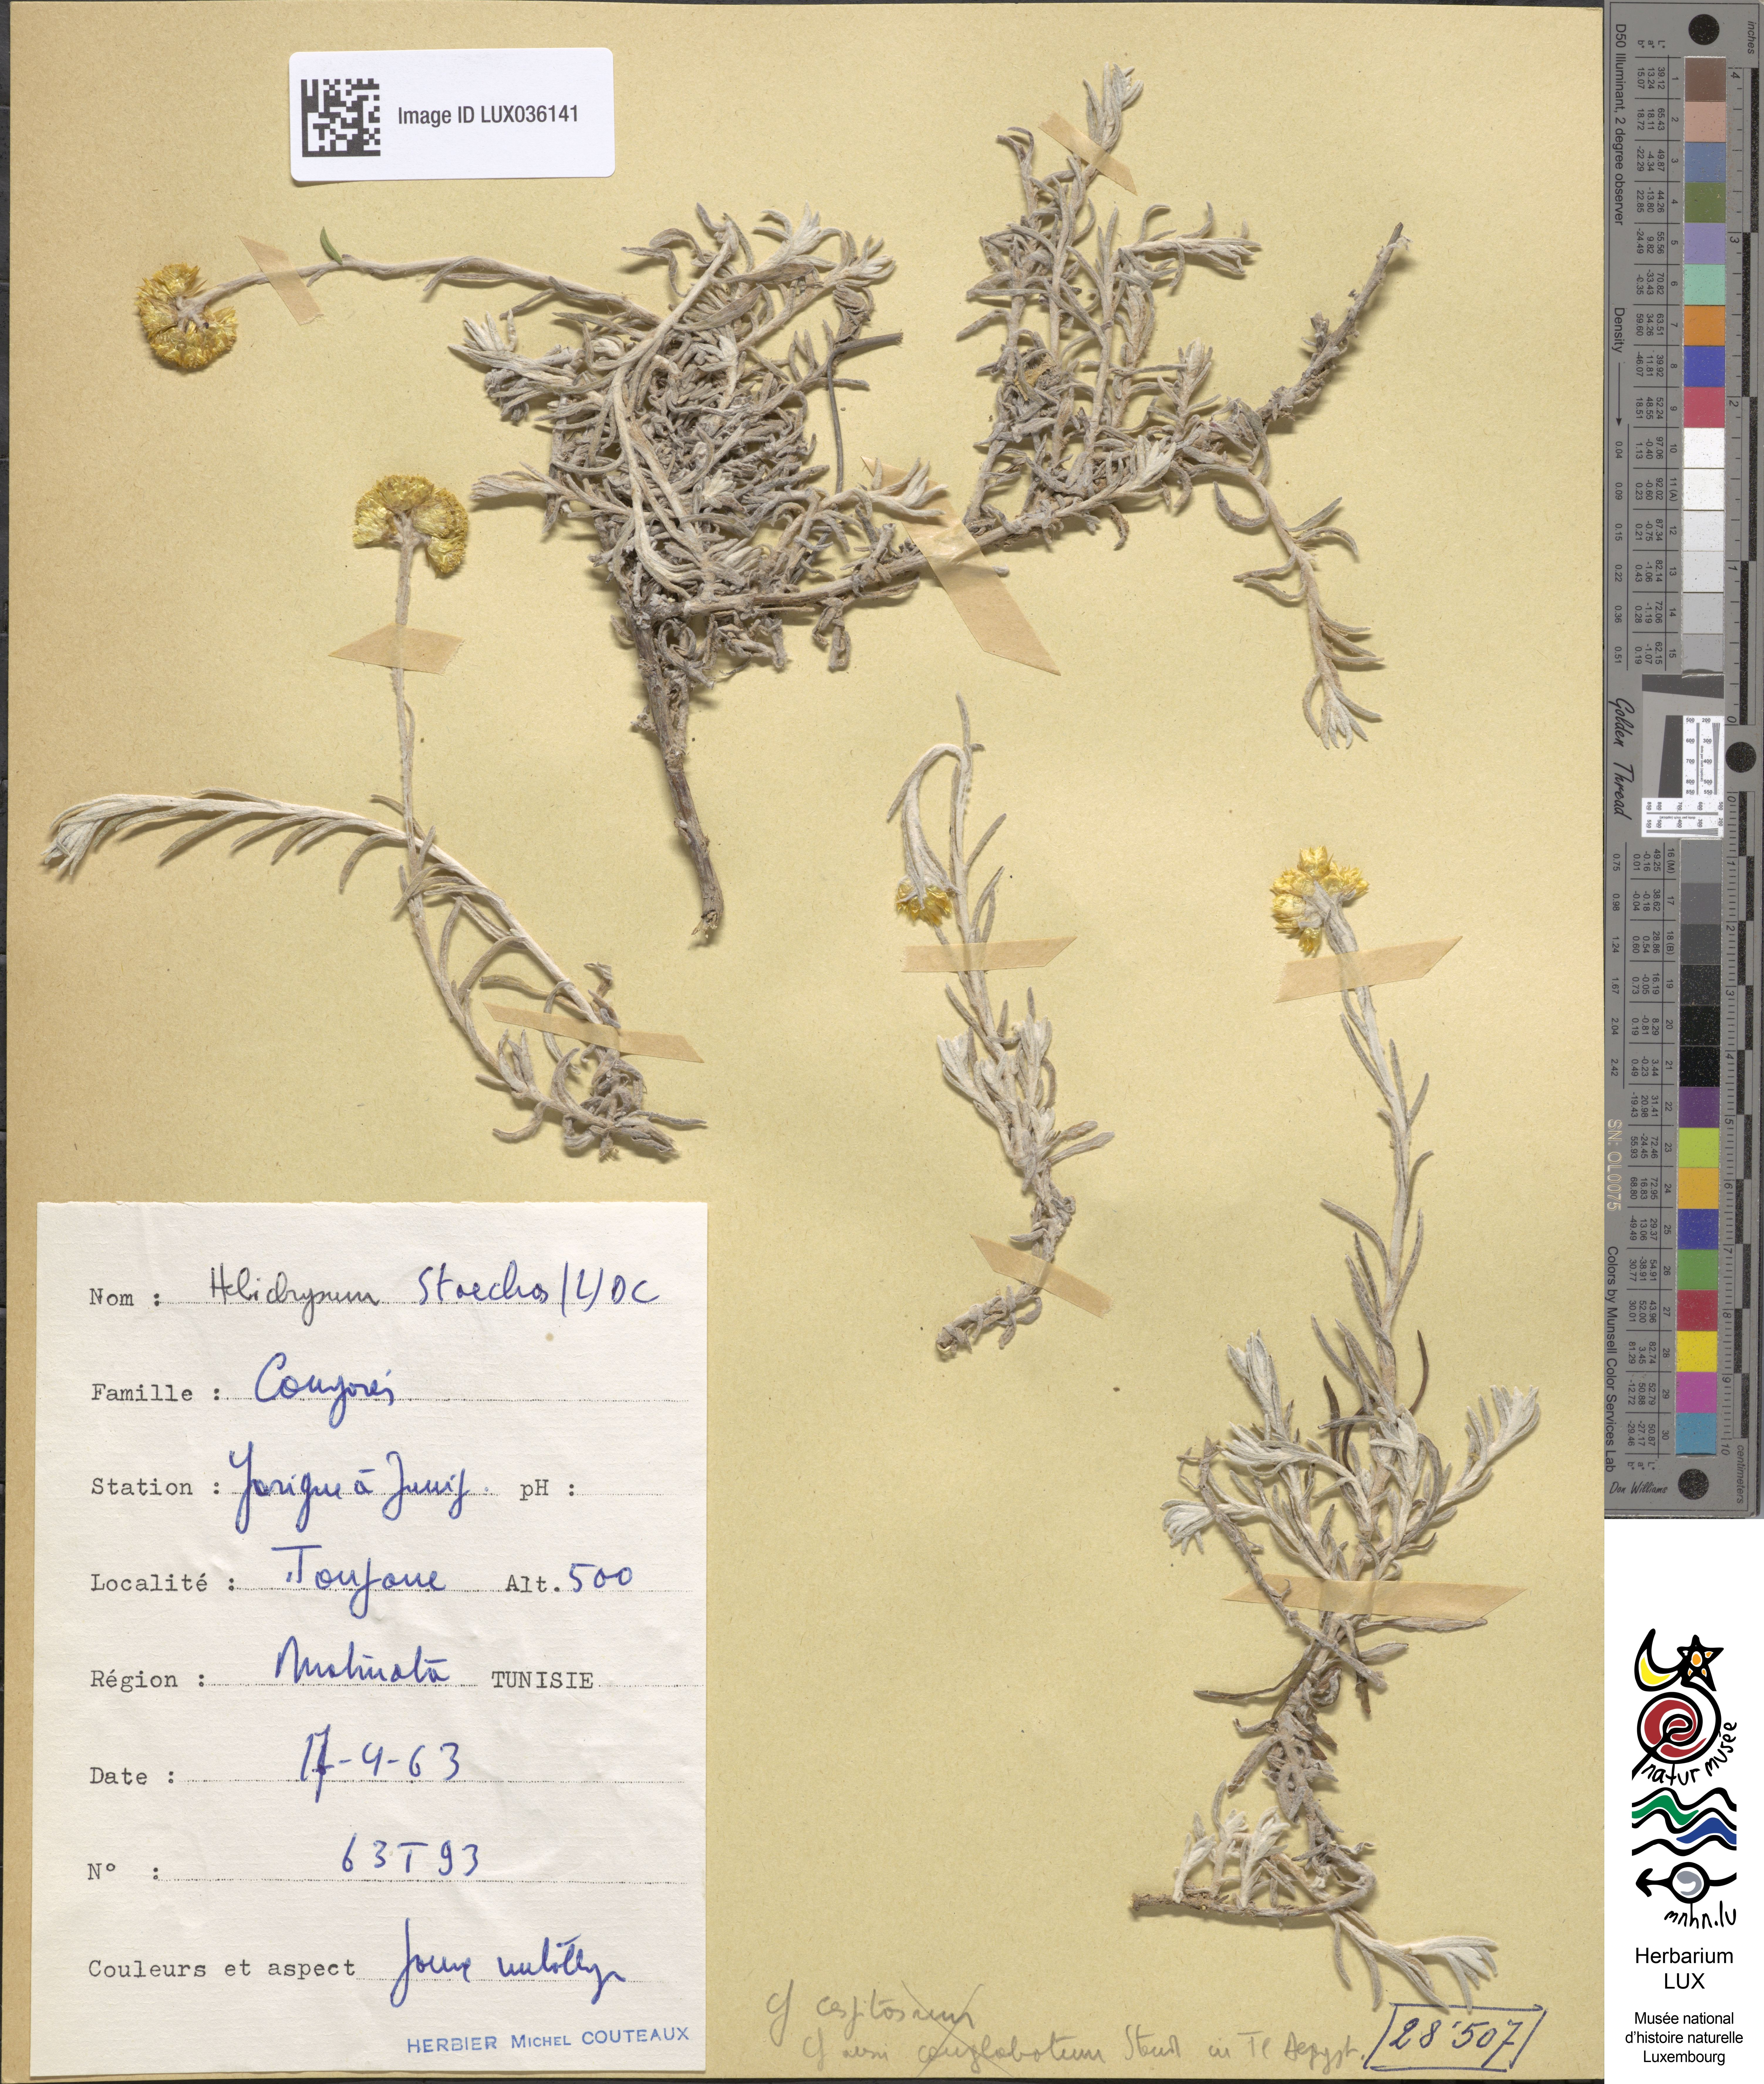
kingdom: Plantae
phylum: Tracheophyta
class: Magnoliopsida
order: Asterales
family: Asteraceae
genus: Helichrysum
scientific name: Helichrysum stoechas
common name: Goldilocks
